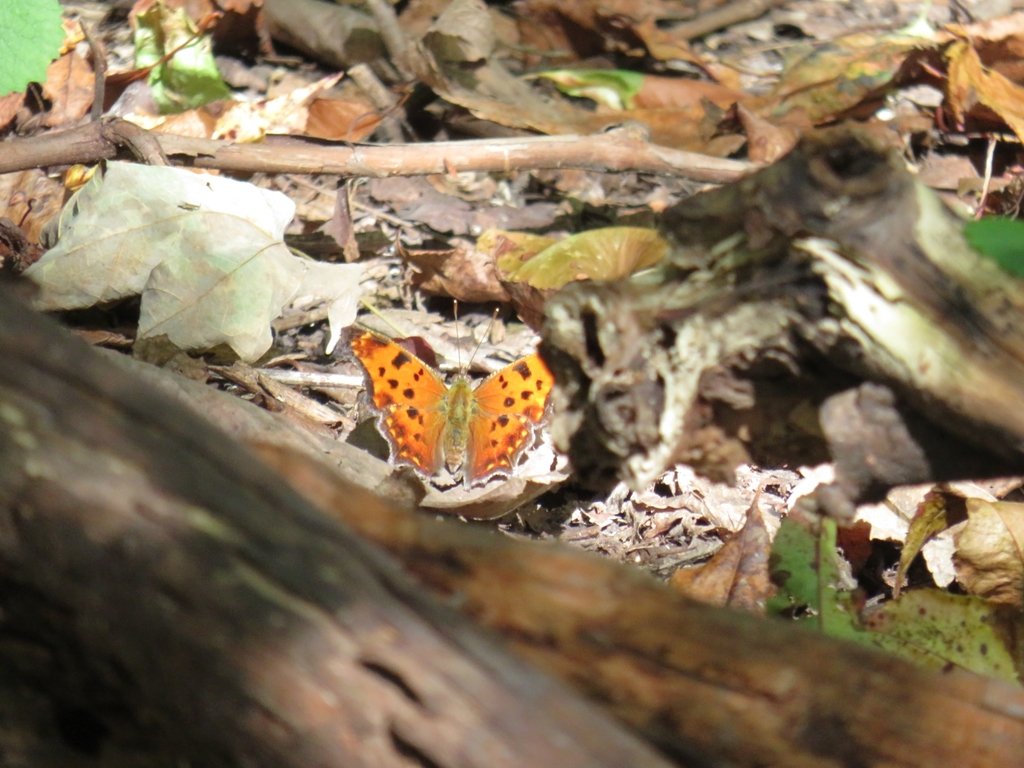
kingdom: Animalia
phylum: Arthropoda
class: Insecta
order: Lepidoptera
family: Nymphalidae
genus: Polygonia
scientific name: Polygonia comma
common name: Eastern Comma
